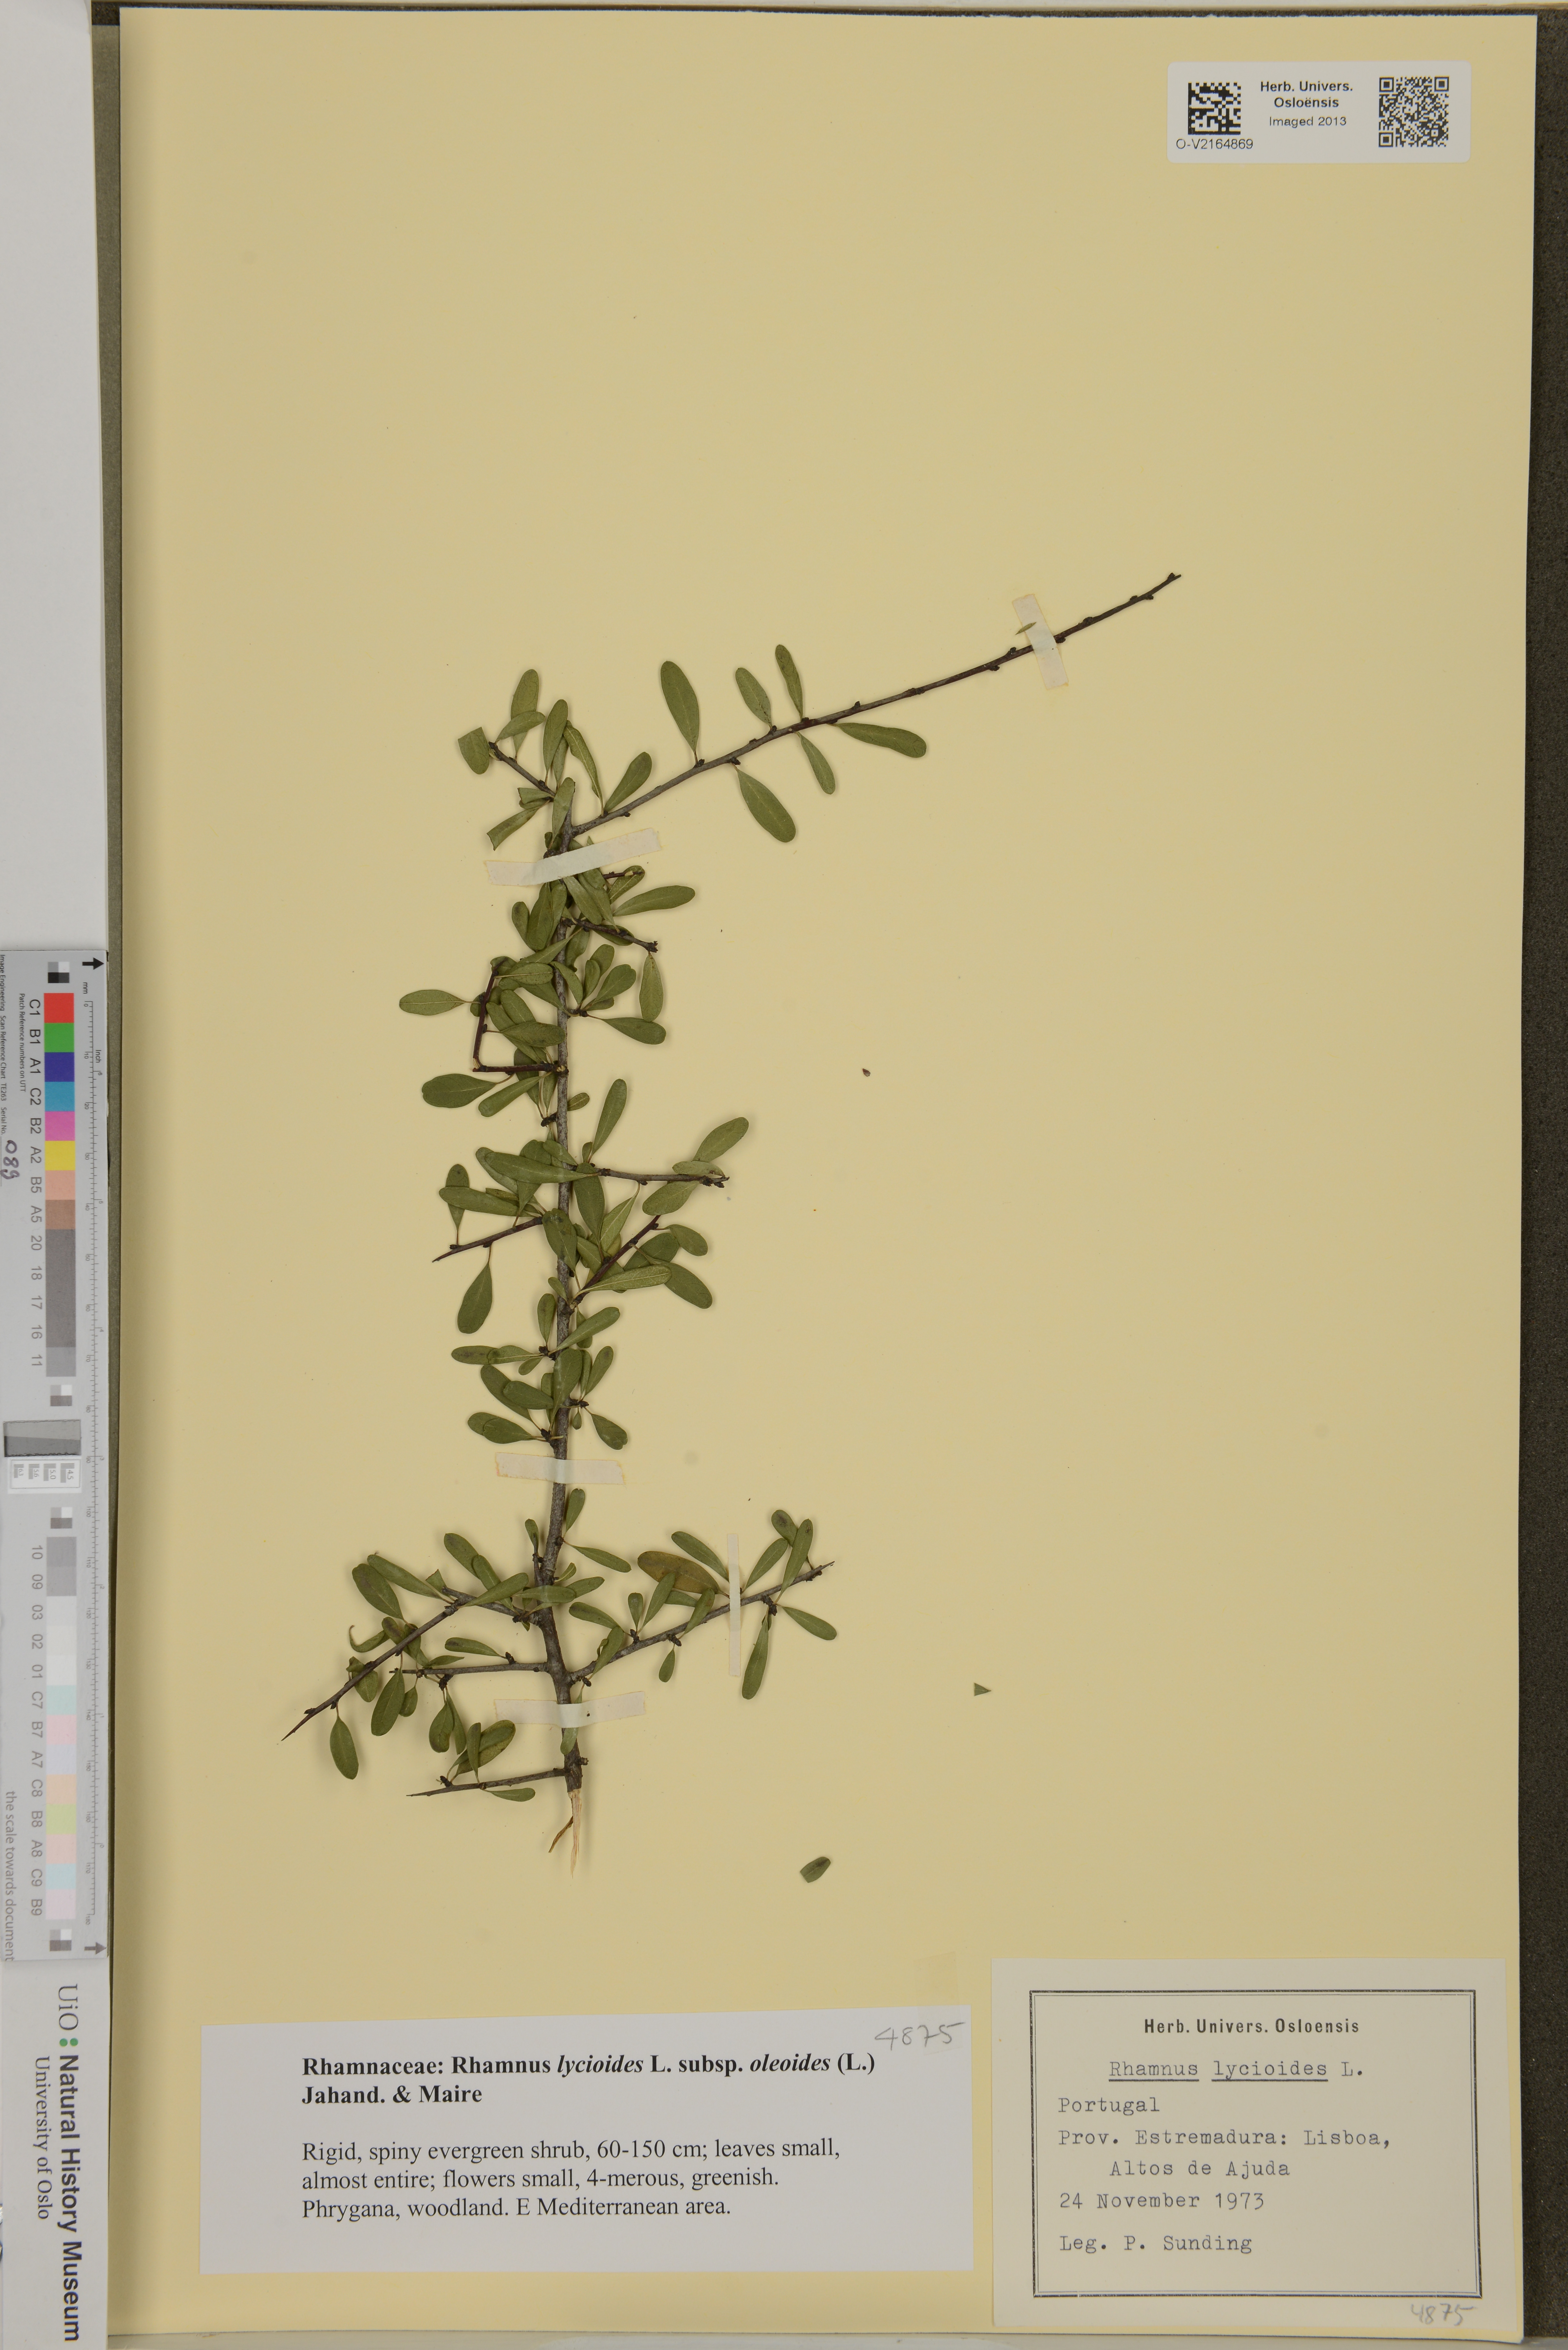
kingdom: Plantae
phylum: Tracheophyta
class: Magnoliopsida
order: Rosales
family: Rhamnaceae
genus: Rhamnus
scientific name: Rhamnus lycioides
